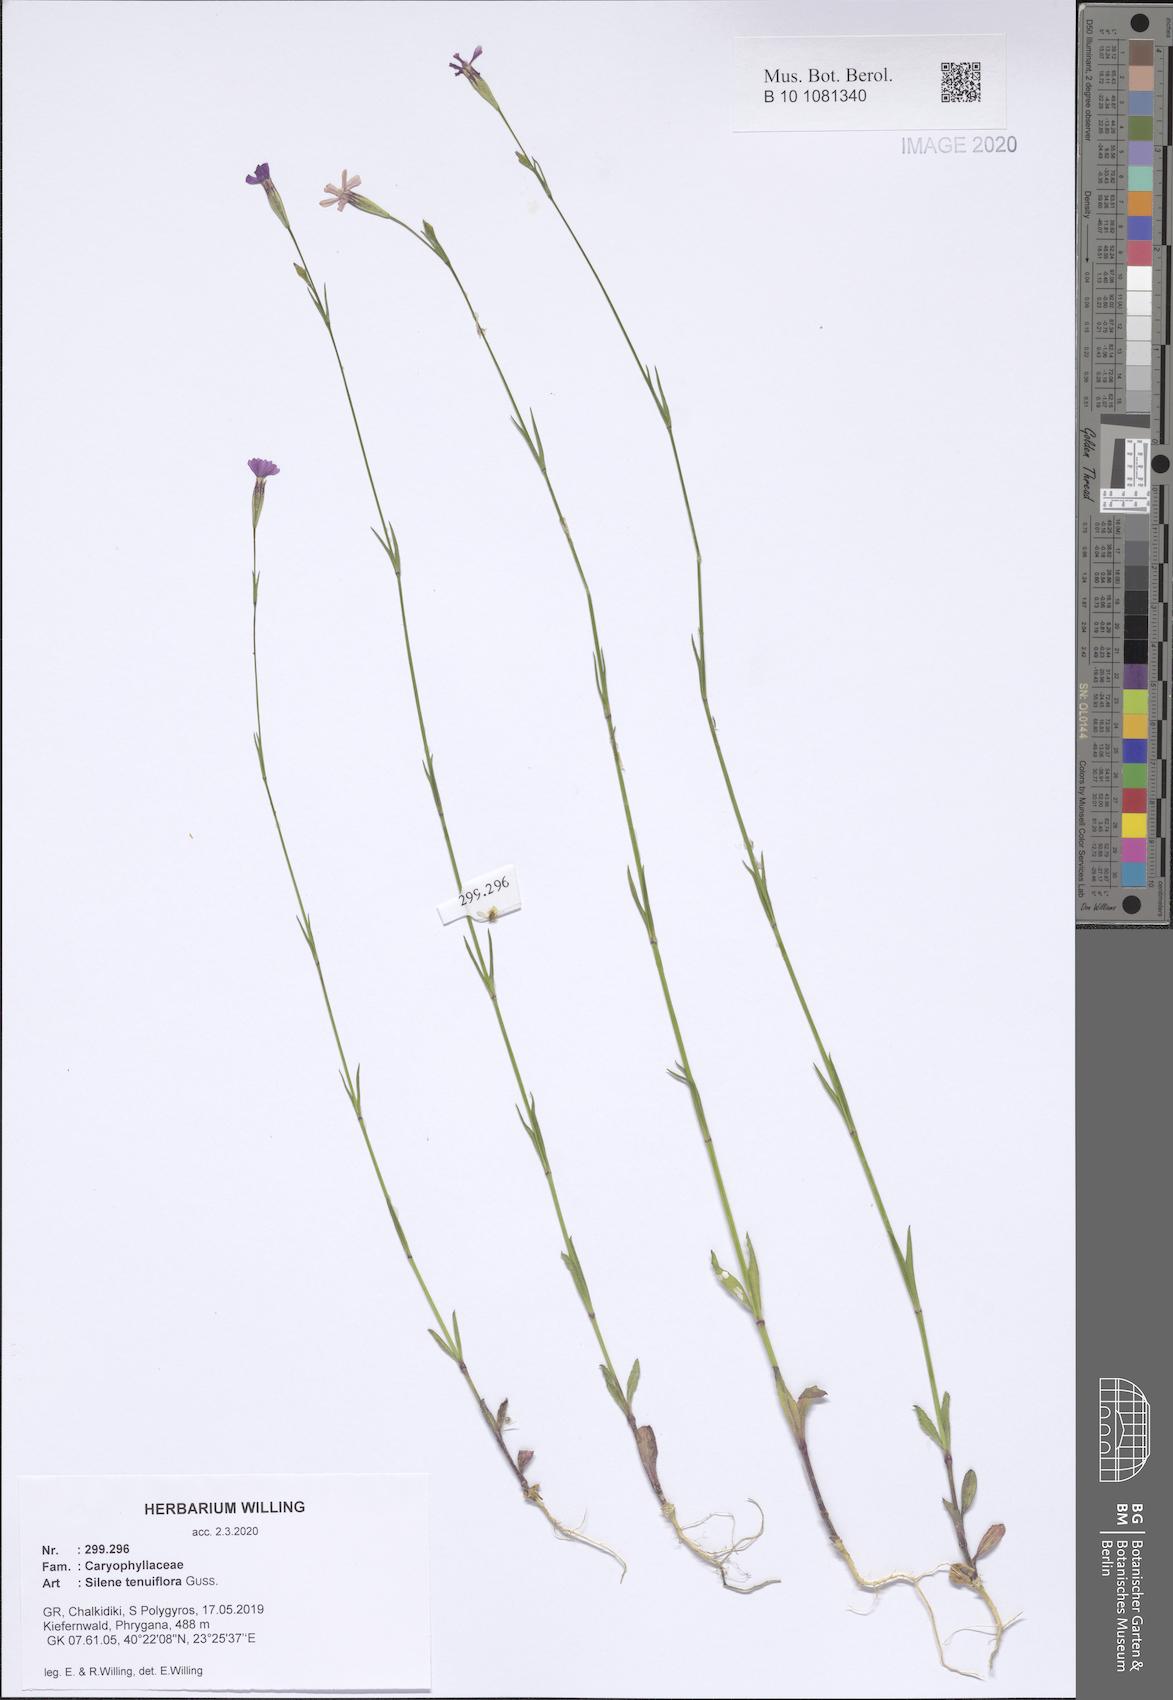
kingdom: Plantae
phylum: Tracheophyta
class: Magnoliopsida
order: Caryophyllales
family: Caryophyllaceae
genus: Silene
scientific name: Silene tenuiflora
